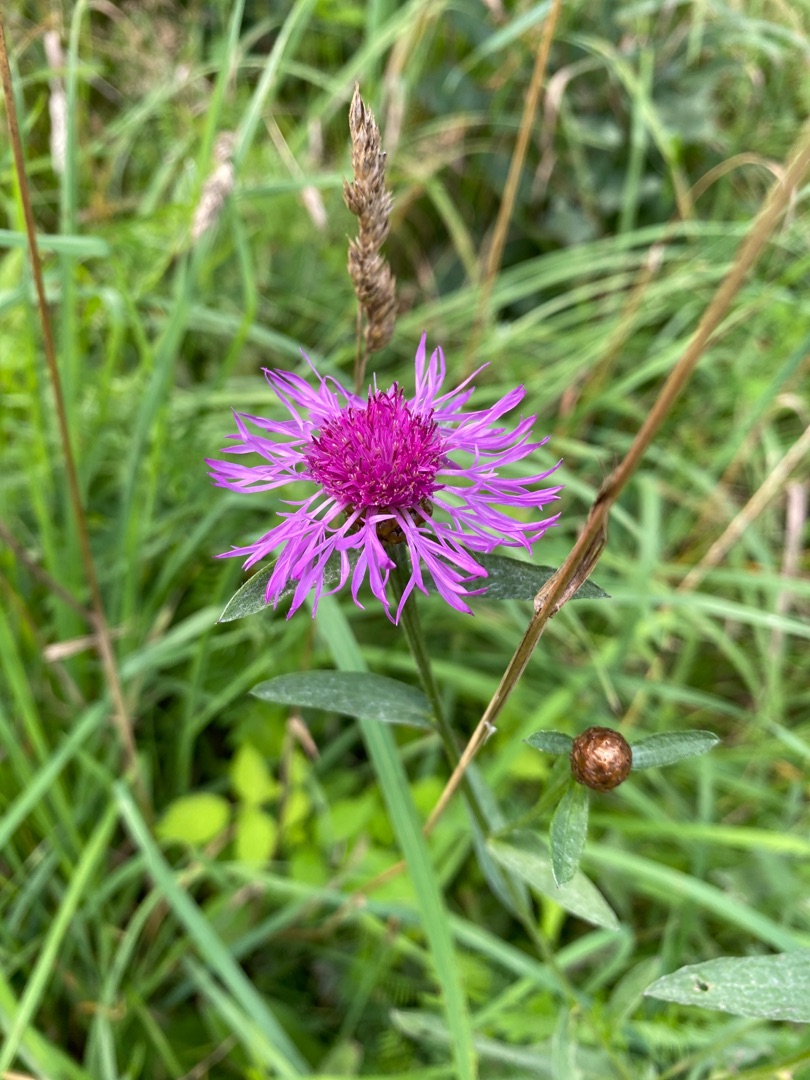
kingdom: Plantae
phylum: Tracheophyta
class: Magnoliopsida
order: Asterales
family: Asteraceae
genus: Centaurea
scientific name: Centaurea jacea
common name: Almindelig knopurt
